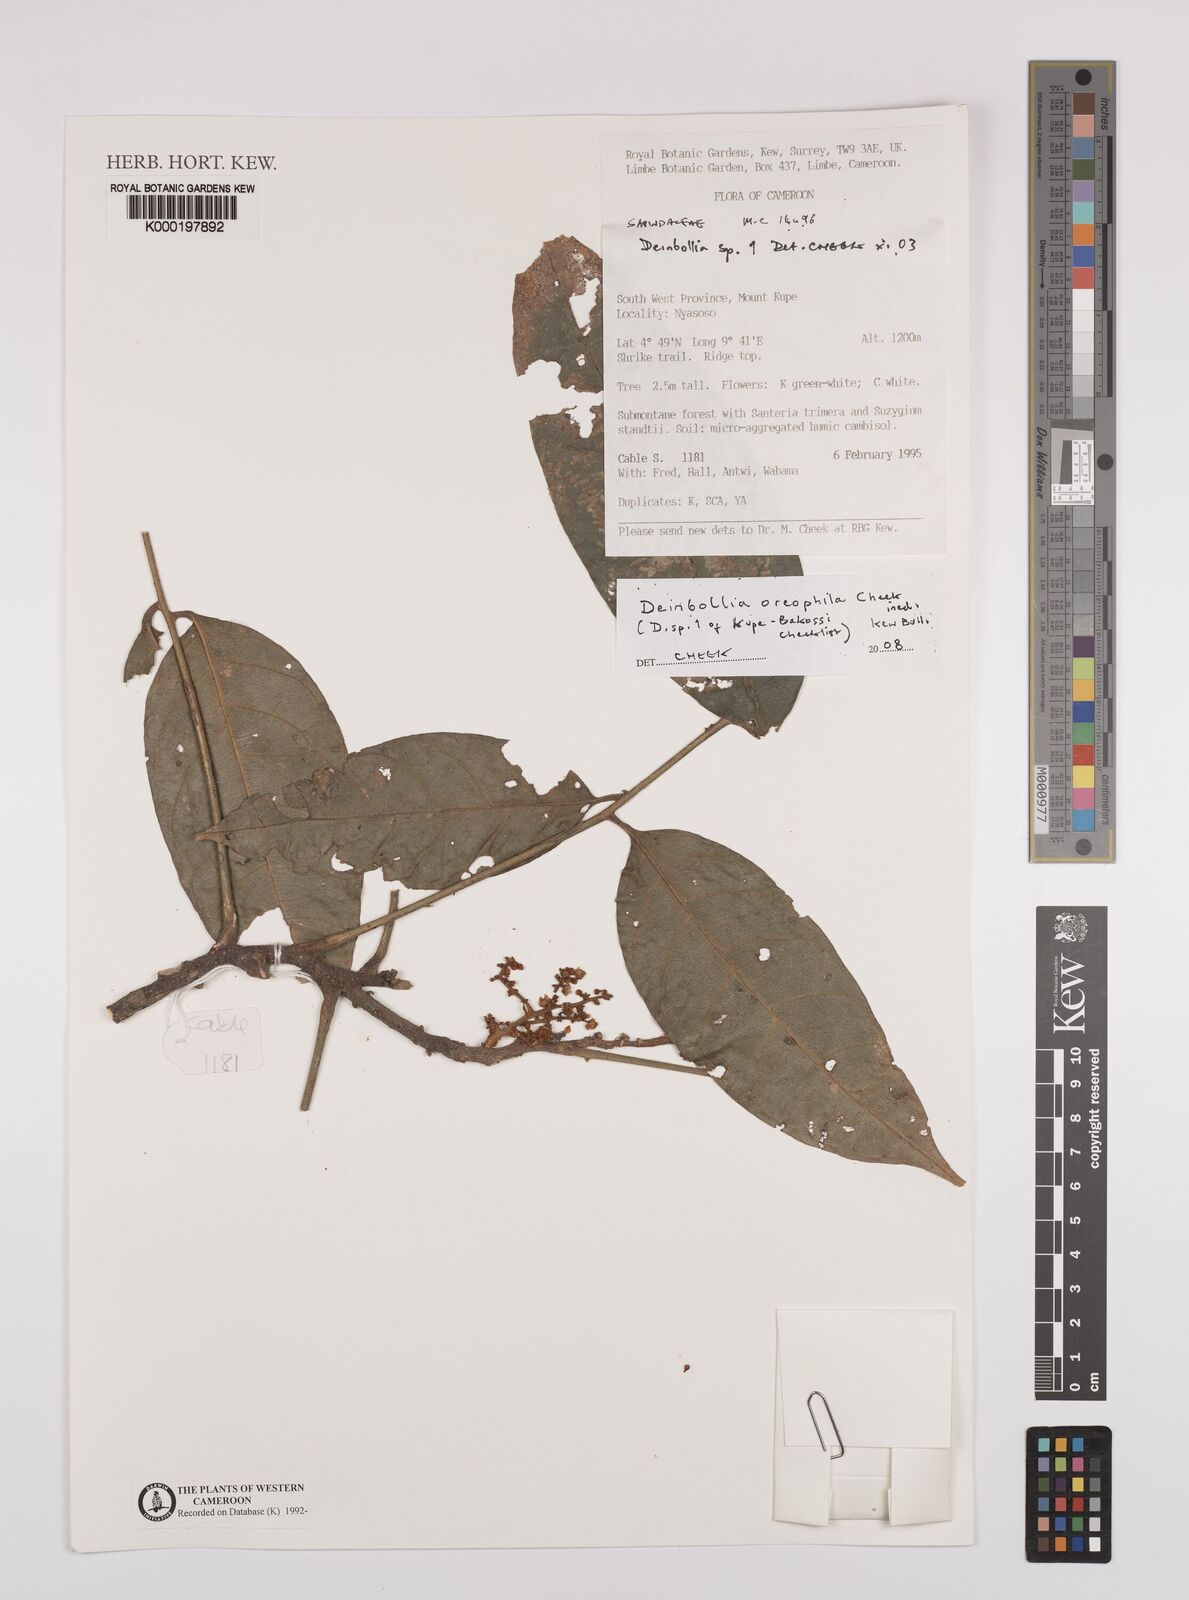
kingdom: Plantae
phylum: Tracheophyta
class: Magnoliopsida
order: Sapindales
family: Sapindaceae
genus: Deinbollia
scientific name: Deinbollia oreophila
